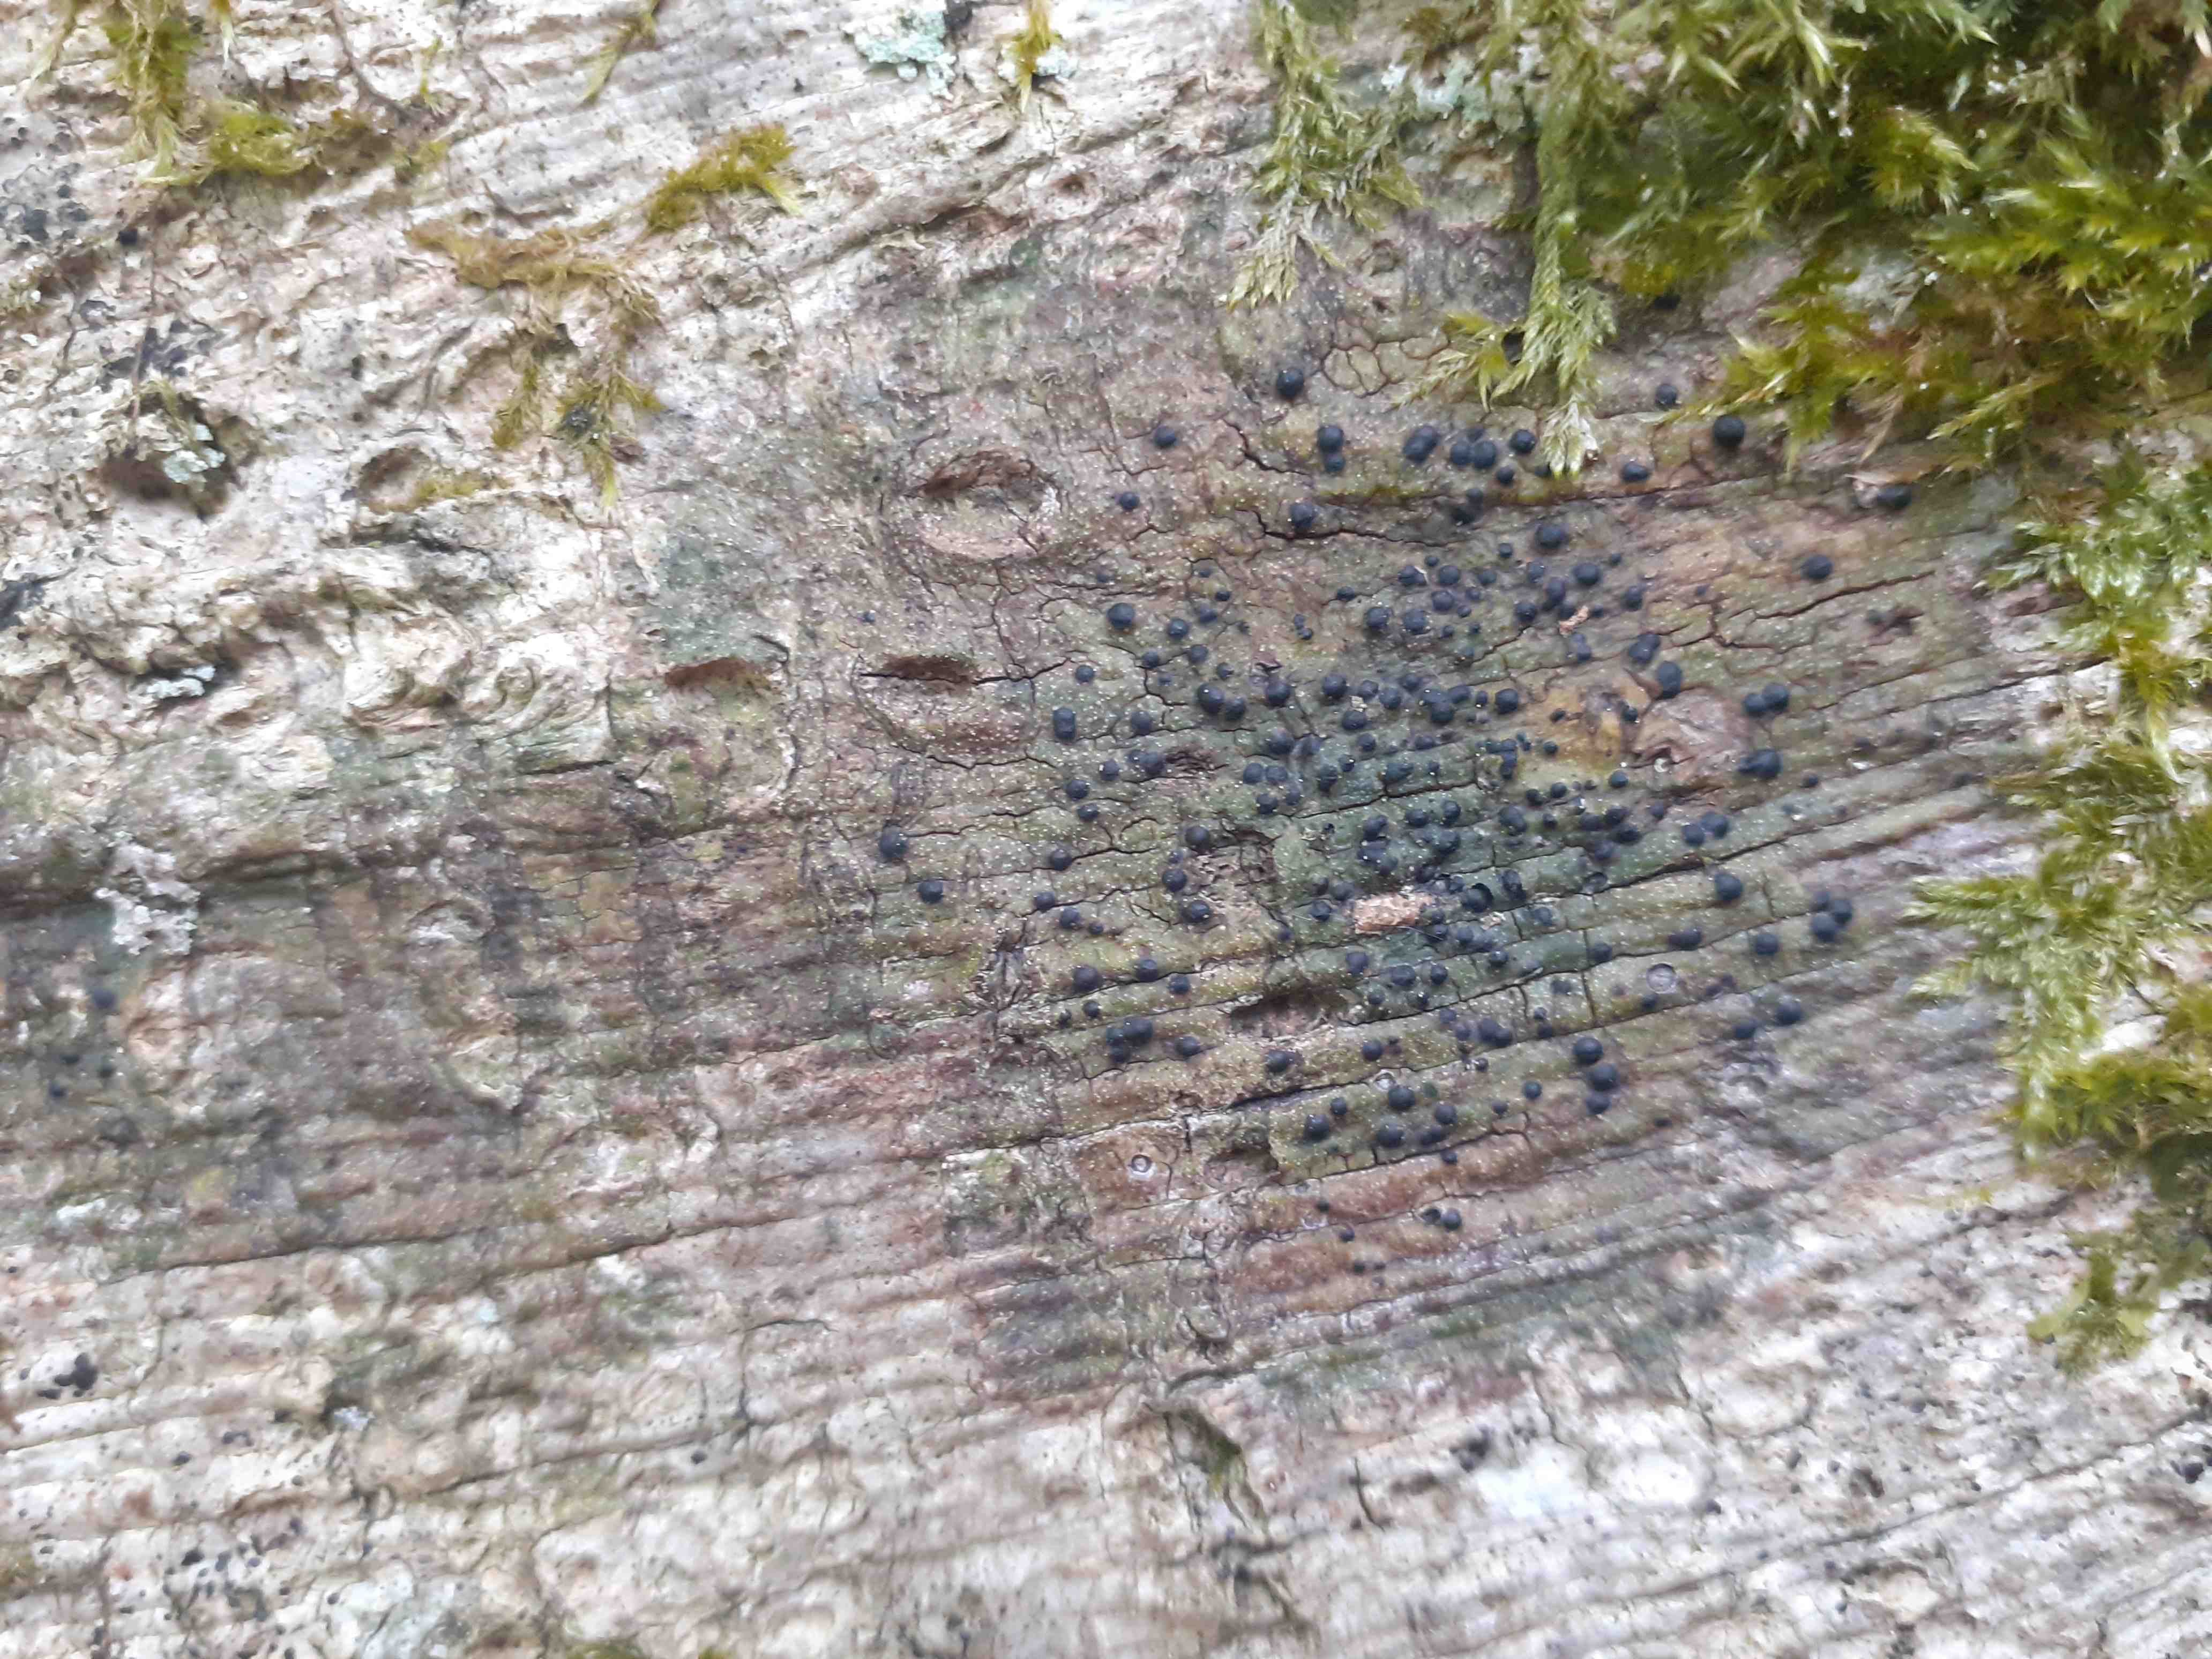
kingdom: Fungi
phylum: Ascomycota
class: Eurotiomycetes
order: Pyrenulales
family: Pyrenulaceae
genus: Pyrenula
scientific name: Pyrenula nitida
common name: glinsende kernelav
